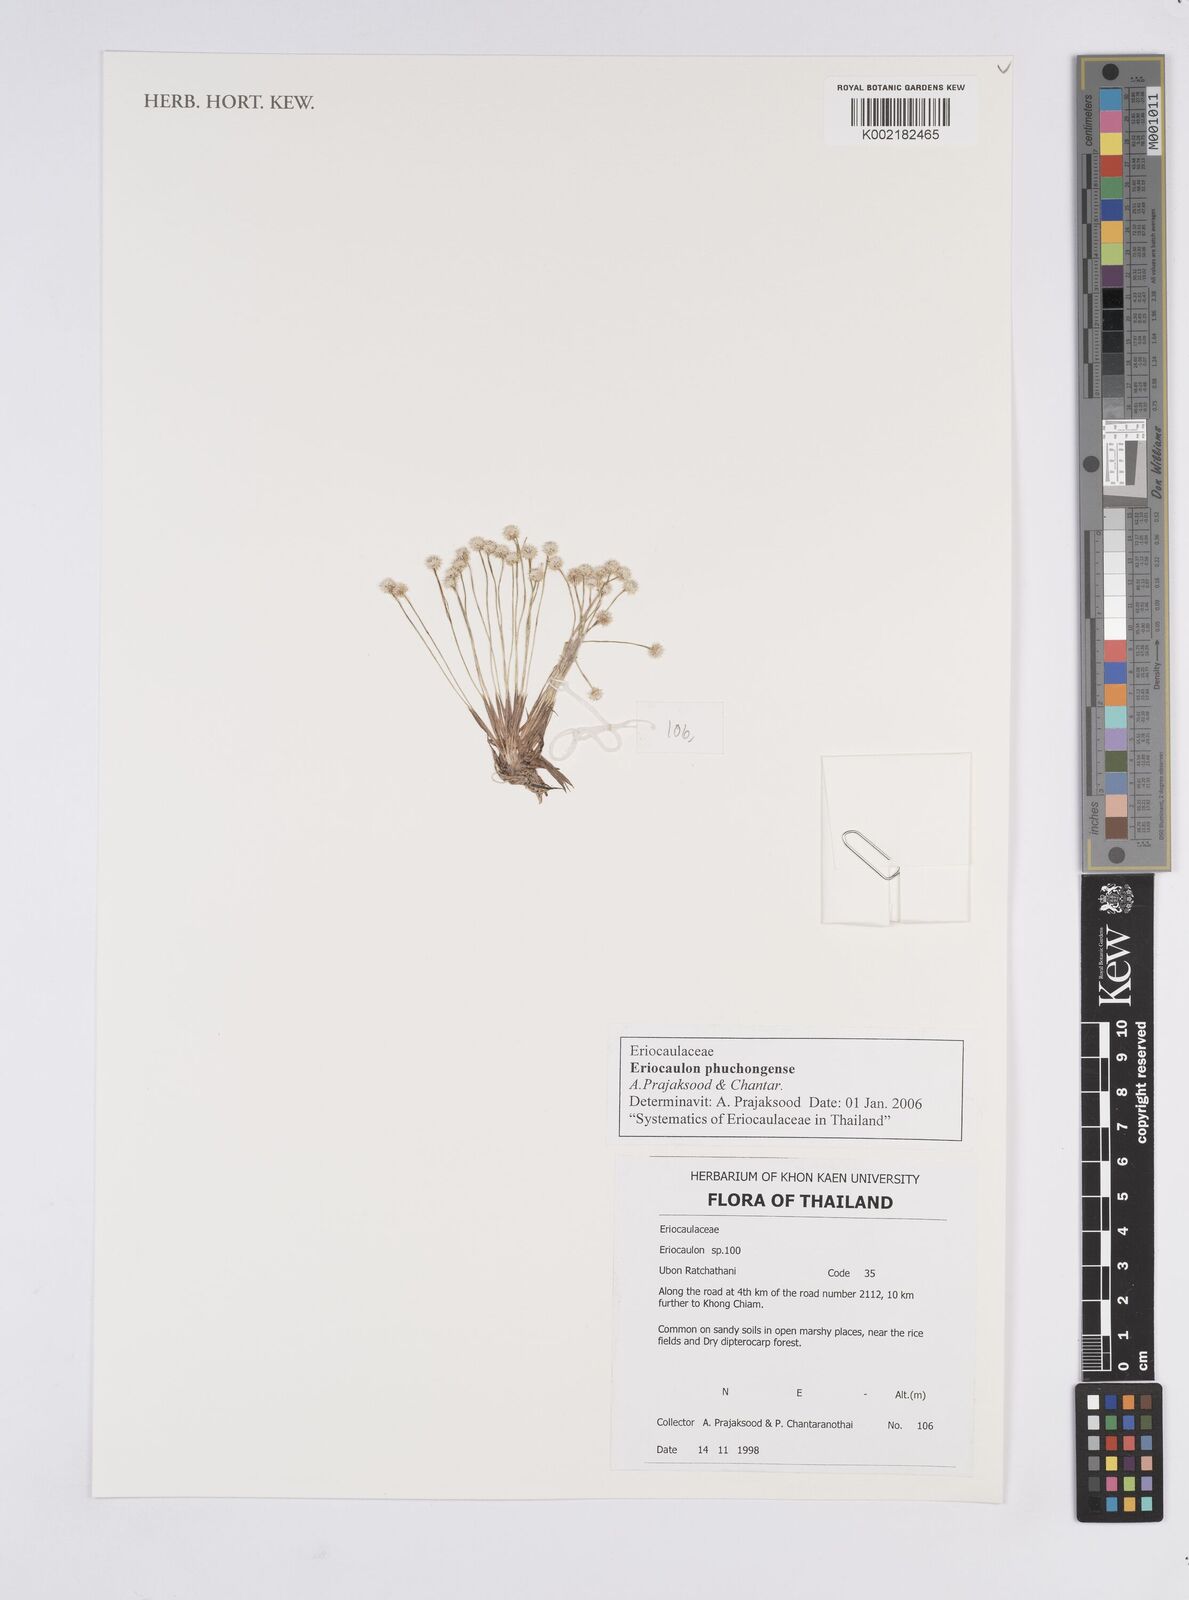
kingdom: Plantae
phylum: Tracheophyta
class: Liliopsida
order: Poales
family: Eriocaulaceae
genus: Eriocaulon
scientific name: Eriocaulon phuchongense
